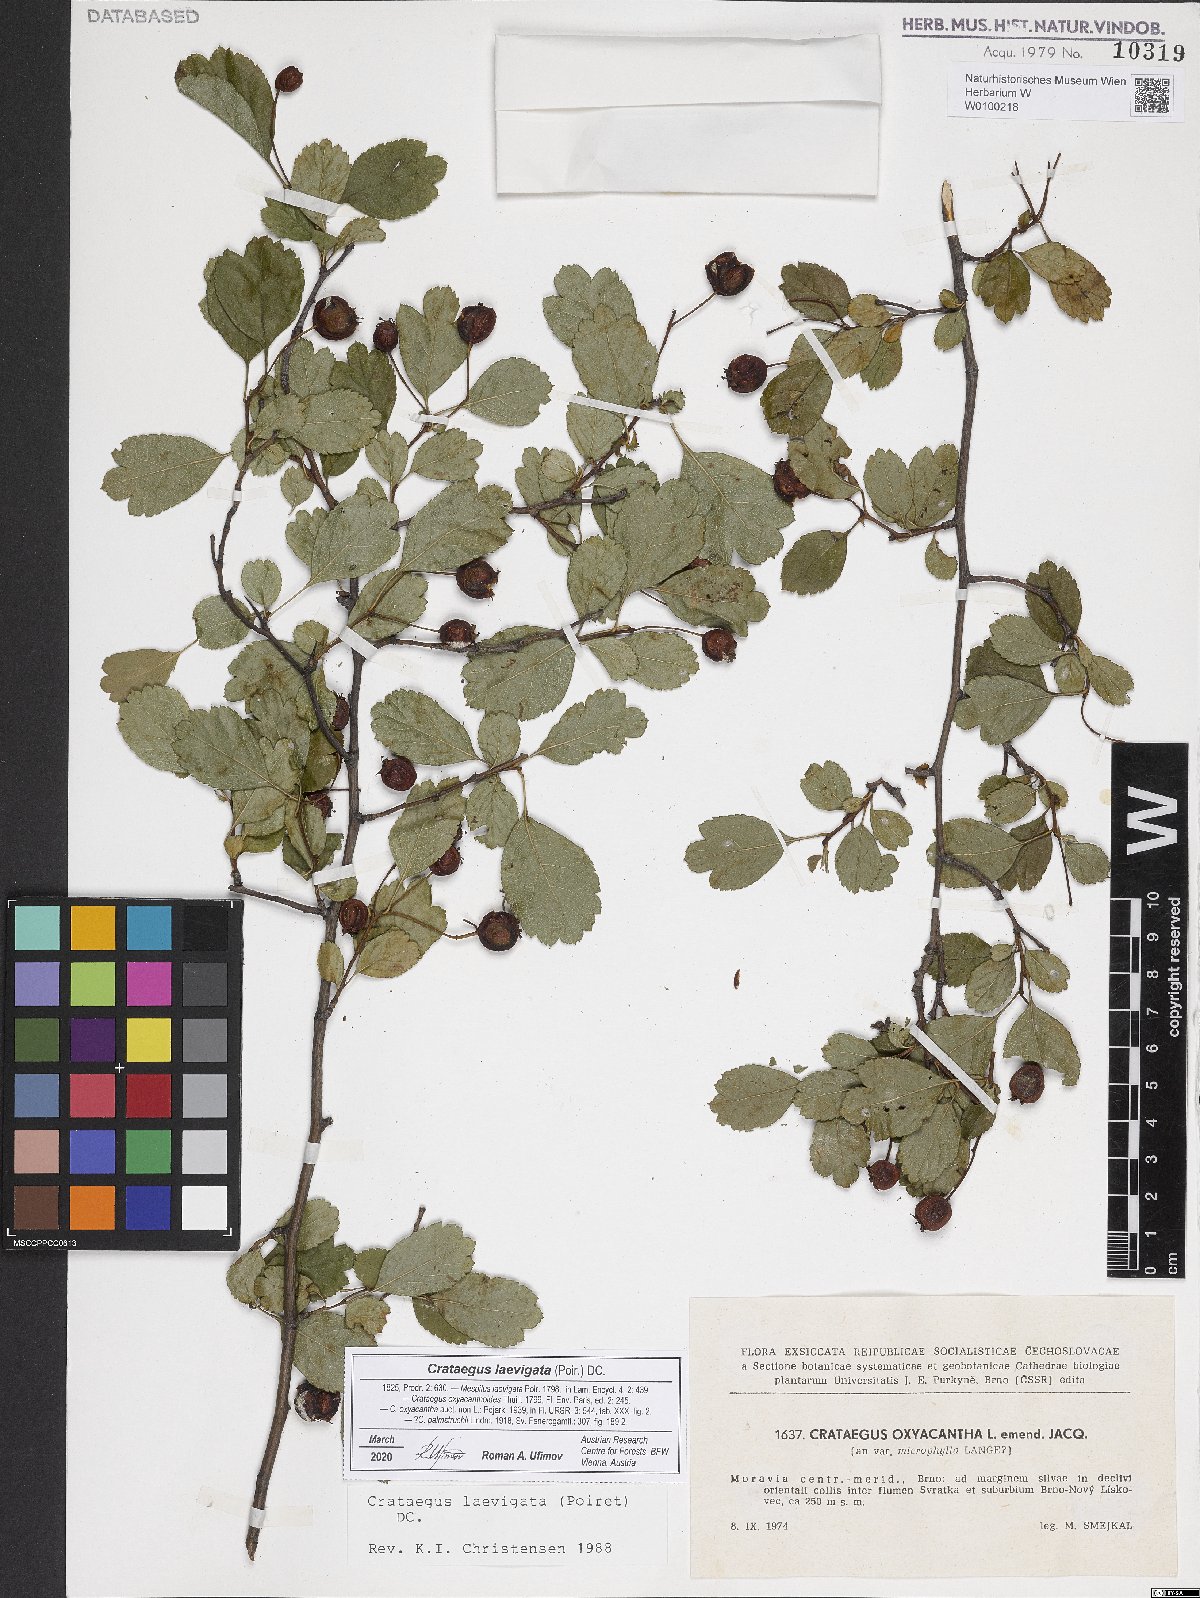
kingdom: Plantae
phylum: Tracheophyta
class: Magnoliopsida
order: Rosales
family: Rosaceae
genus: Crataegus
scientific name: Crataegus laevigata
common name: Midland hawthorn
